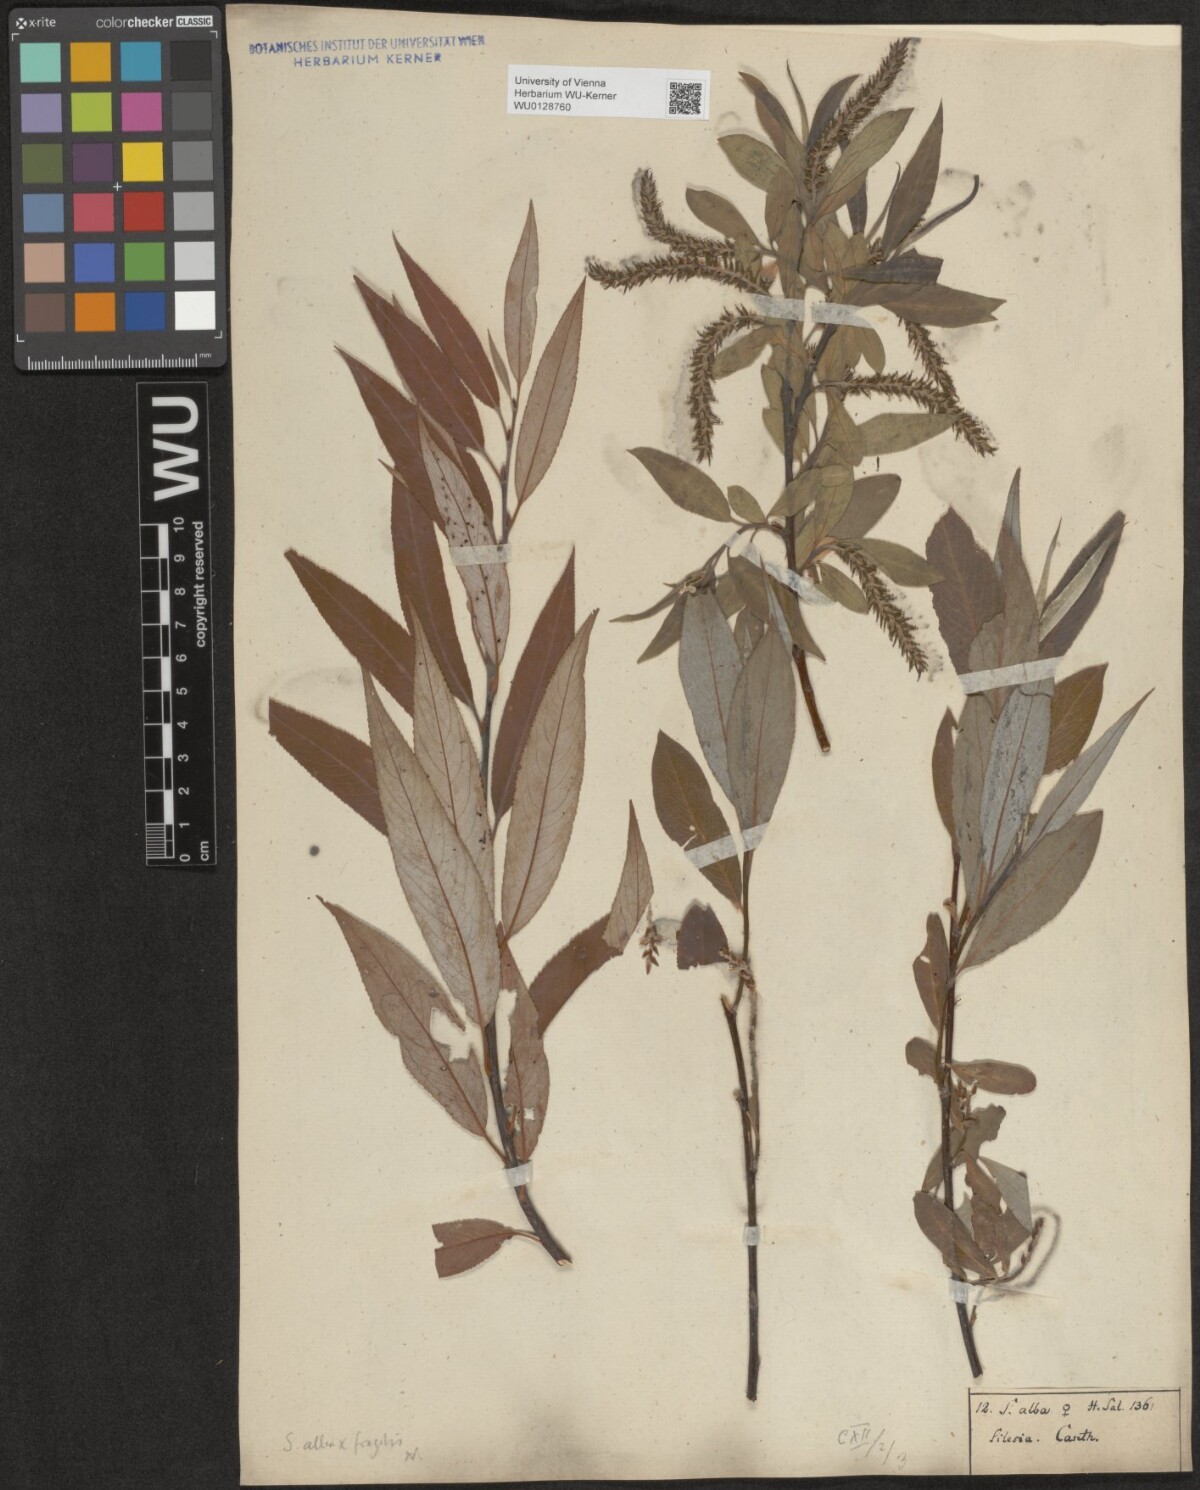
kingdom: Plantae
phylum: Tracheophyta
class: Magnoliopsida
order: Malpighiales
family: Salicaceae
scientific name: Salicaceae
